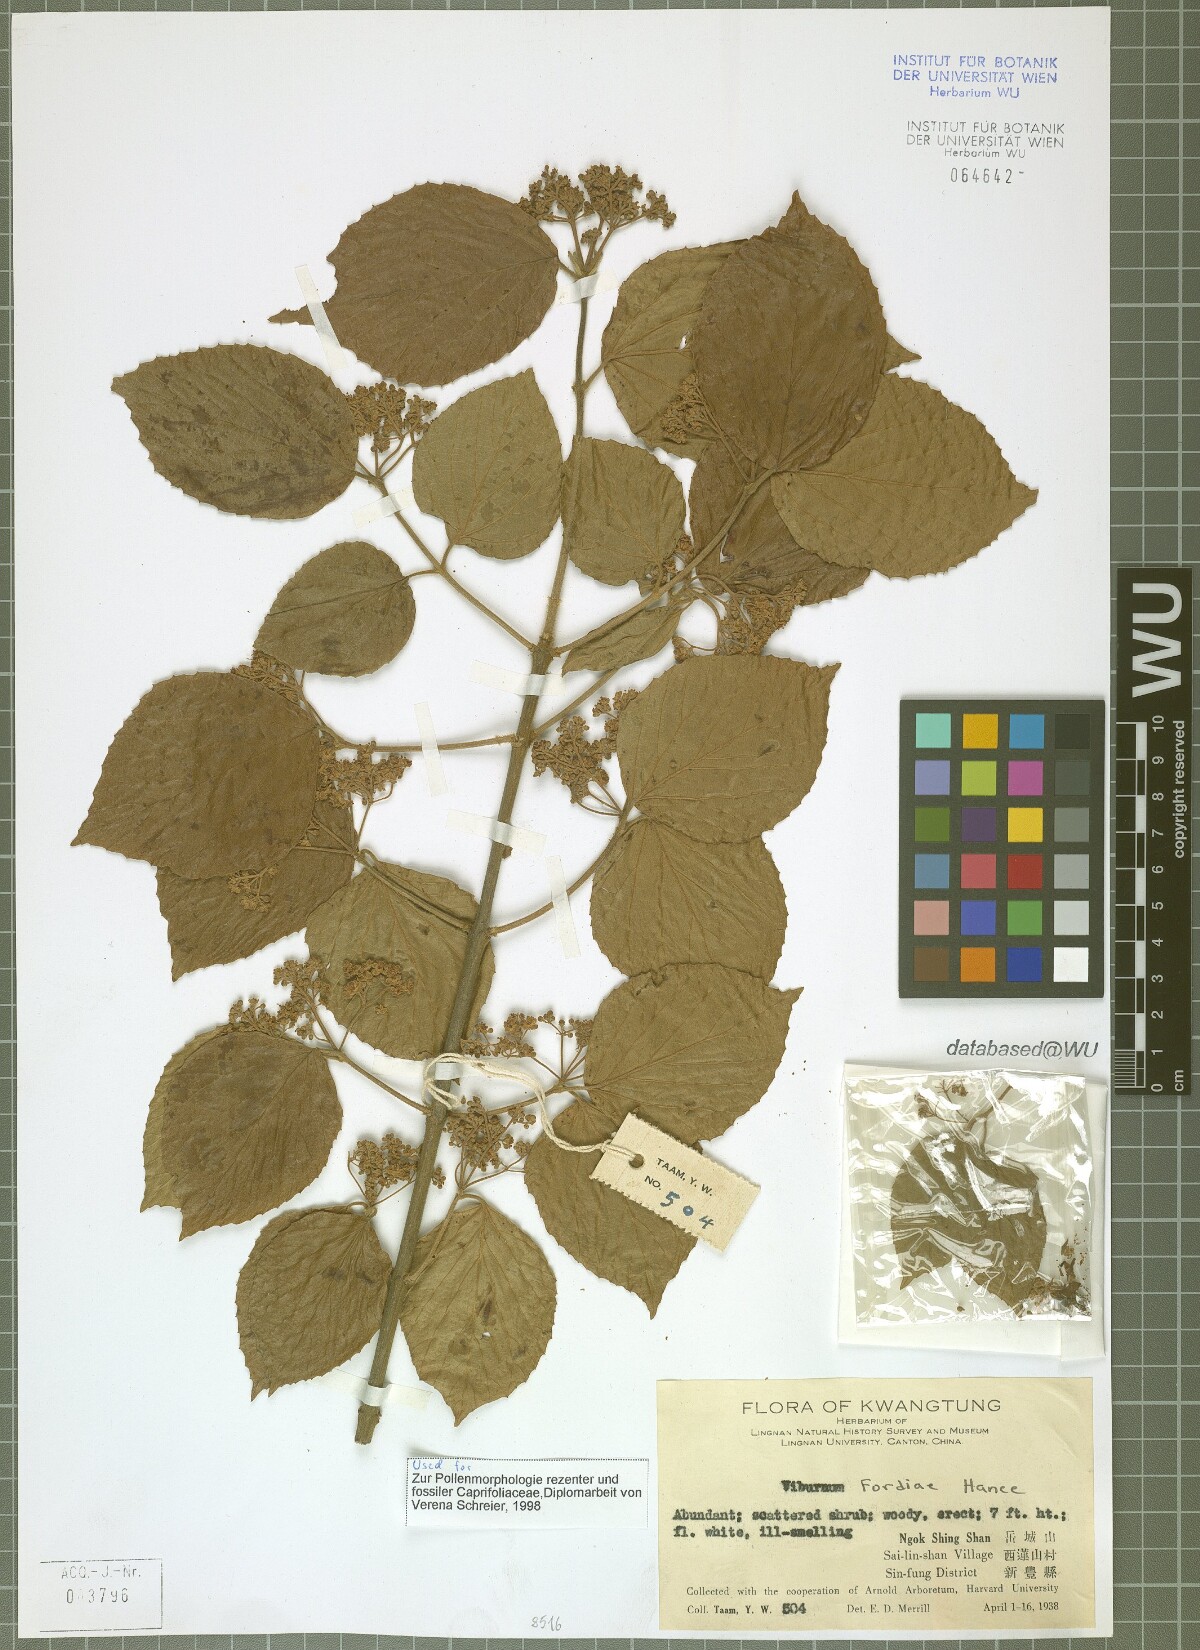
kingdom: Plantae
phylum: Tracheophyta
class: Magnoliopsida
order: Dipsacales
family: Viburnaceae
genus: Viburnum
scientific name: Viburnum fordiae
